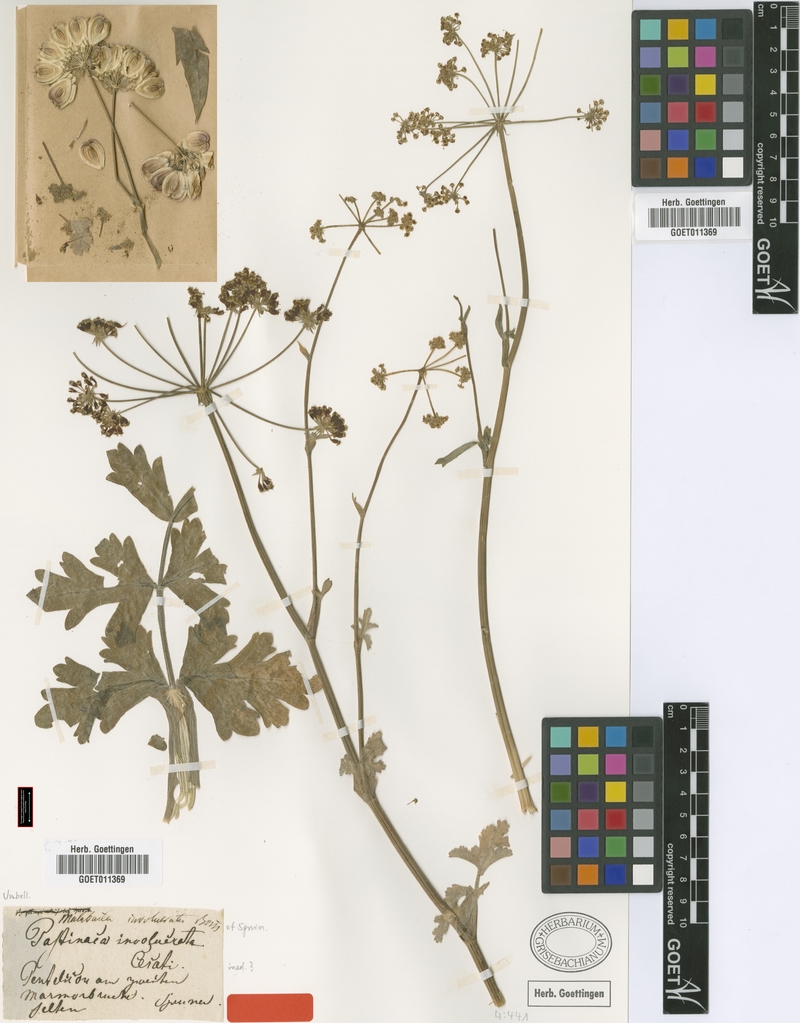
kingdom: Plantae
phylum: Tracheophyta
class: Magnoliopsida
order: Apiales
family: Apiaceae
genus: Leiotulus
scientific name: Leiotulus involucratus
